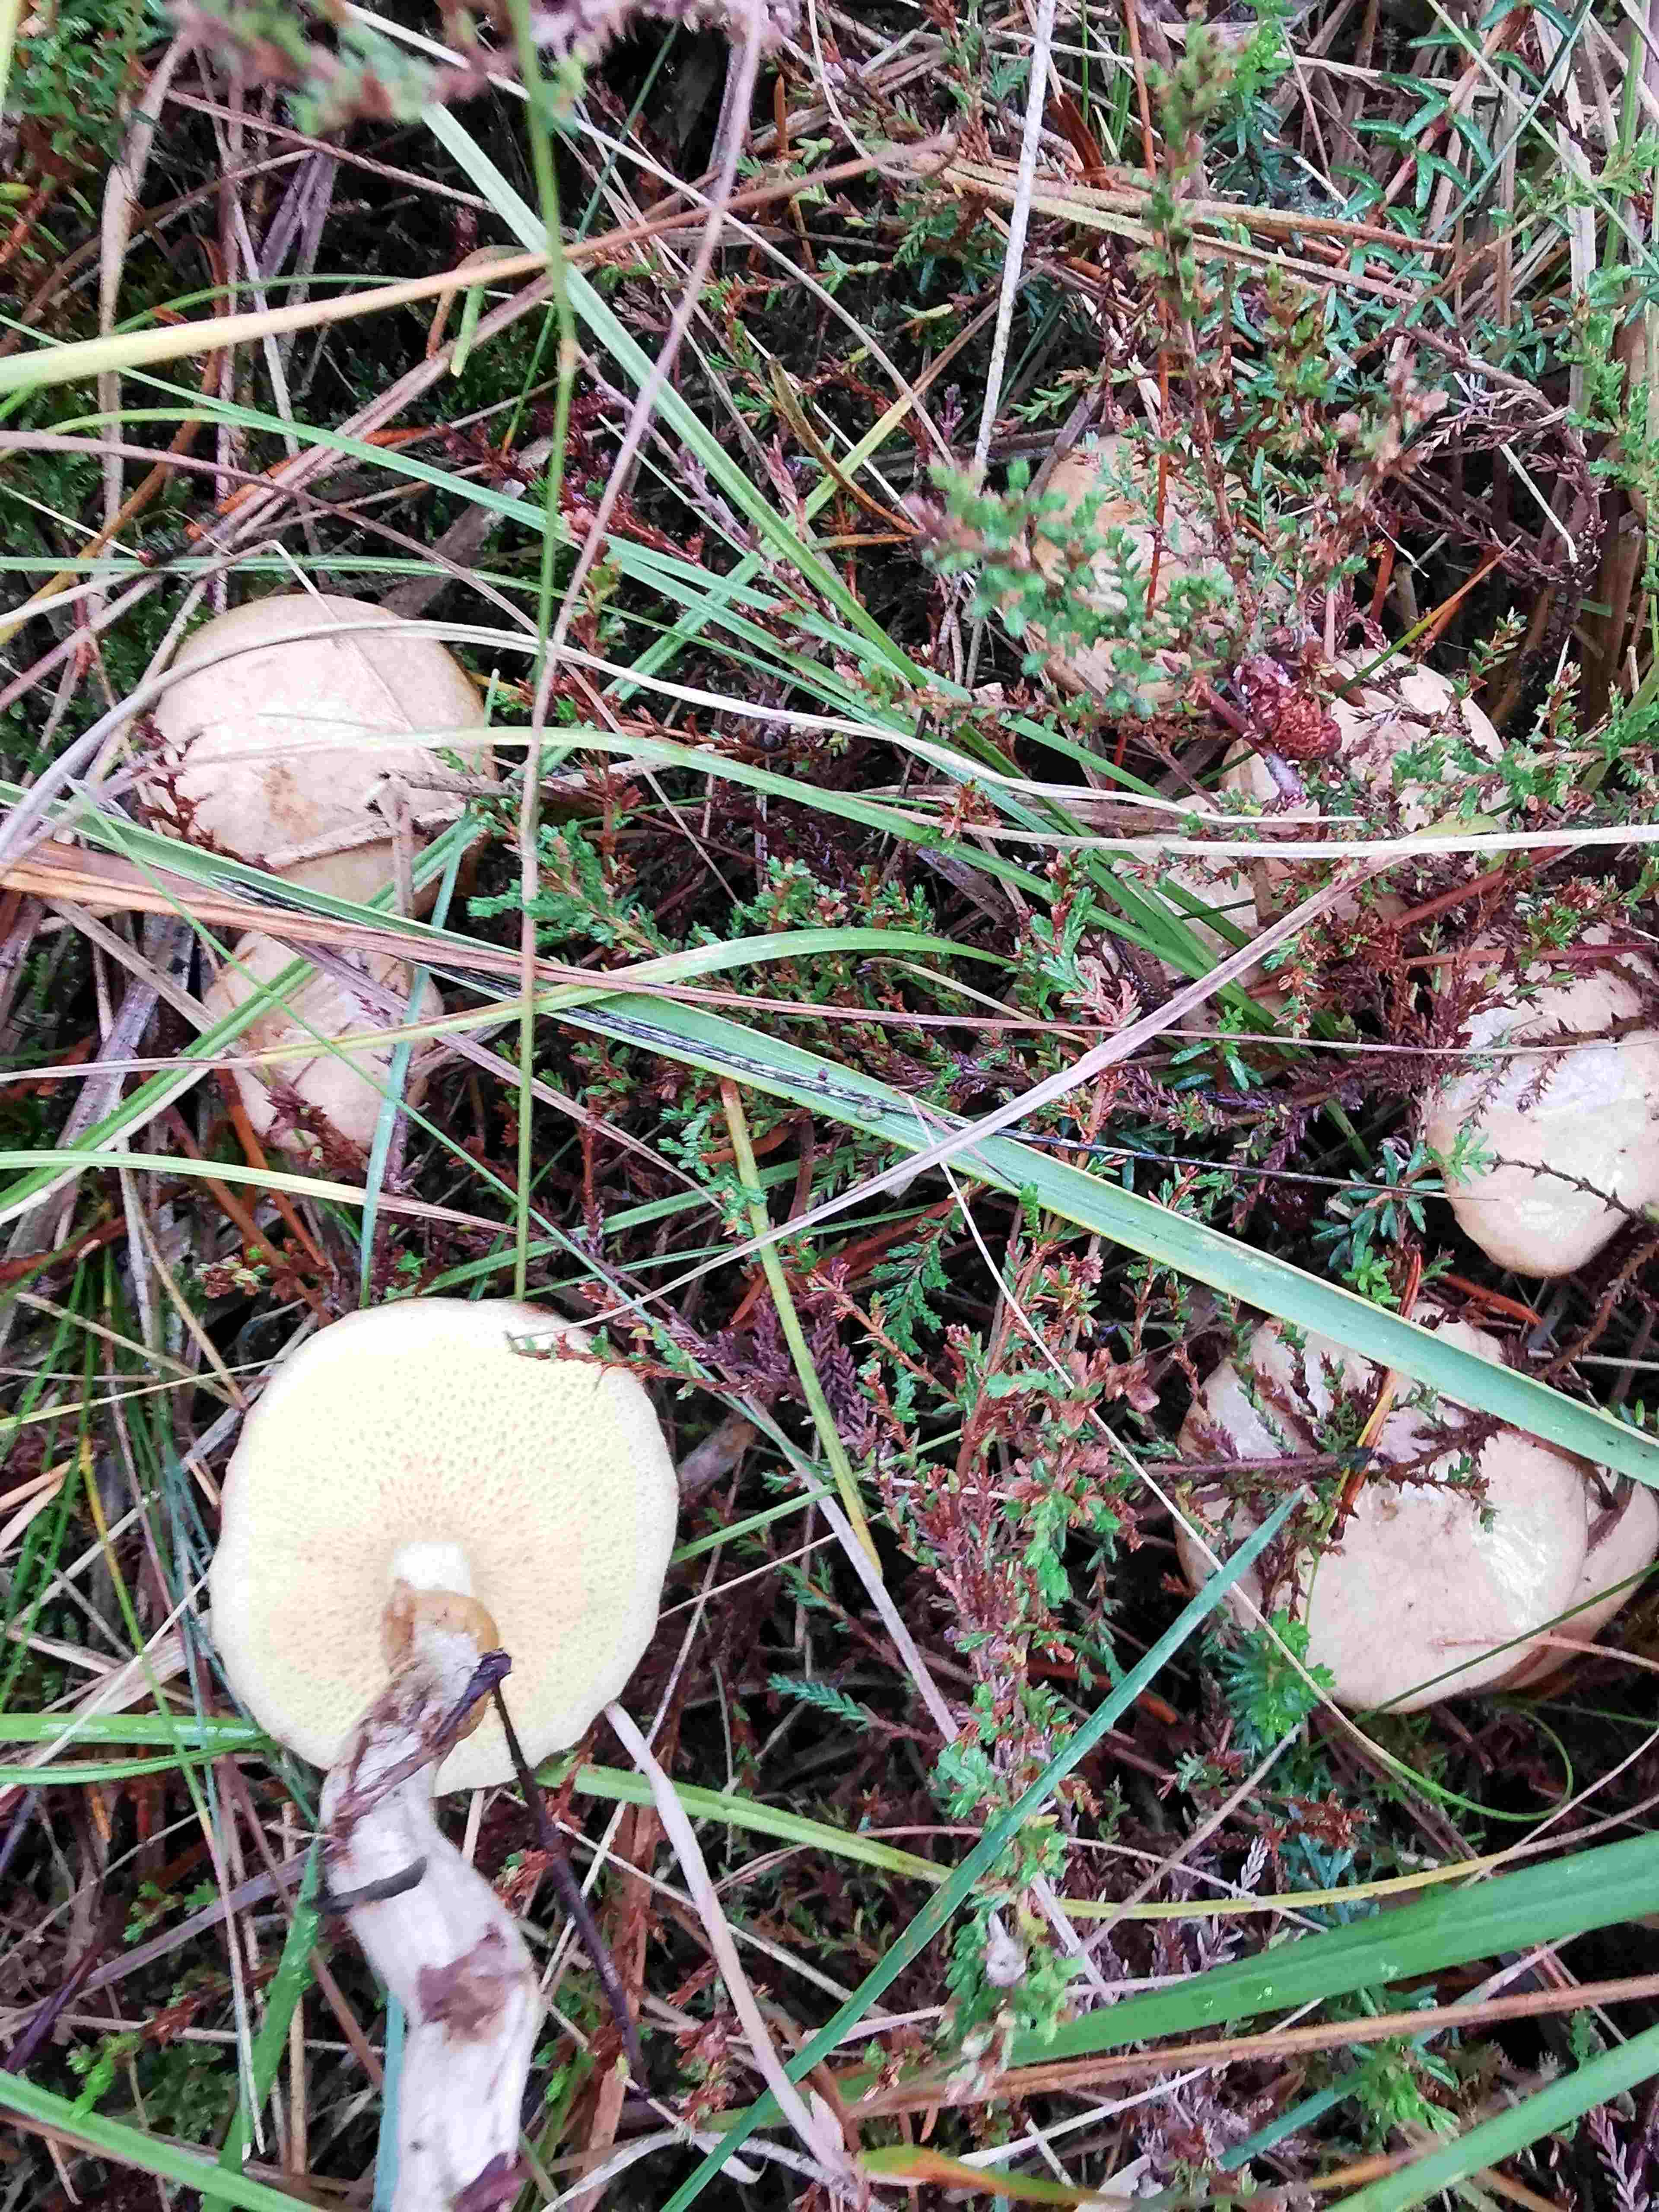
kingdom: Fungi
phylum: Basidiomycota
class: Agaricomycetes
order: Boletales
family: Suillaceae
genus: Suillus
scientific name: Suillus flavidus
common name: mose-slimrørhat
